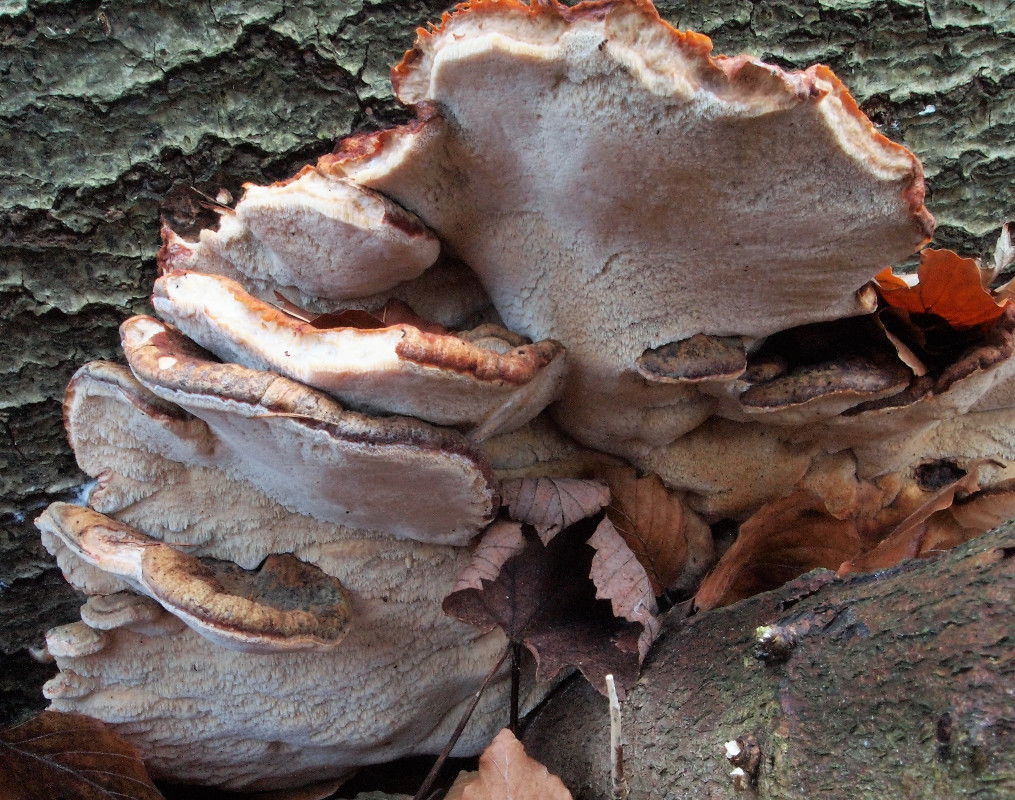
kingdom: Fungi
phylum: Basidiomycota
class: Agaricomycetes
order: Polyporales
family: Ischnodermataceae
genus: Ischnoderma
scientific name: Ischnoderma resinosum
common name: løv-tjæreporesvamp
